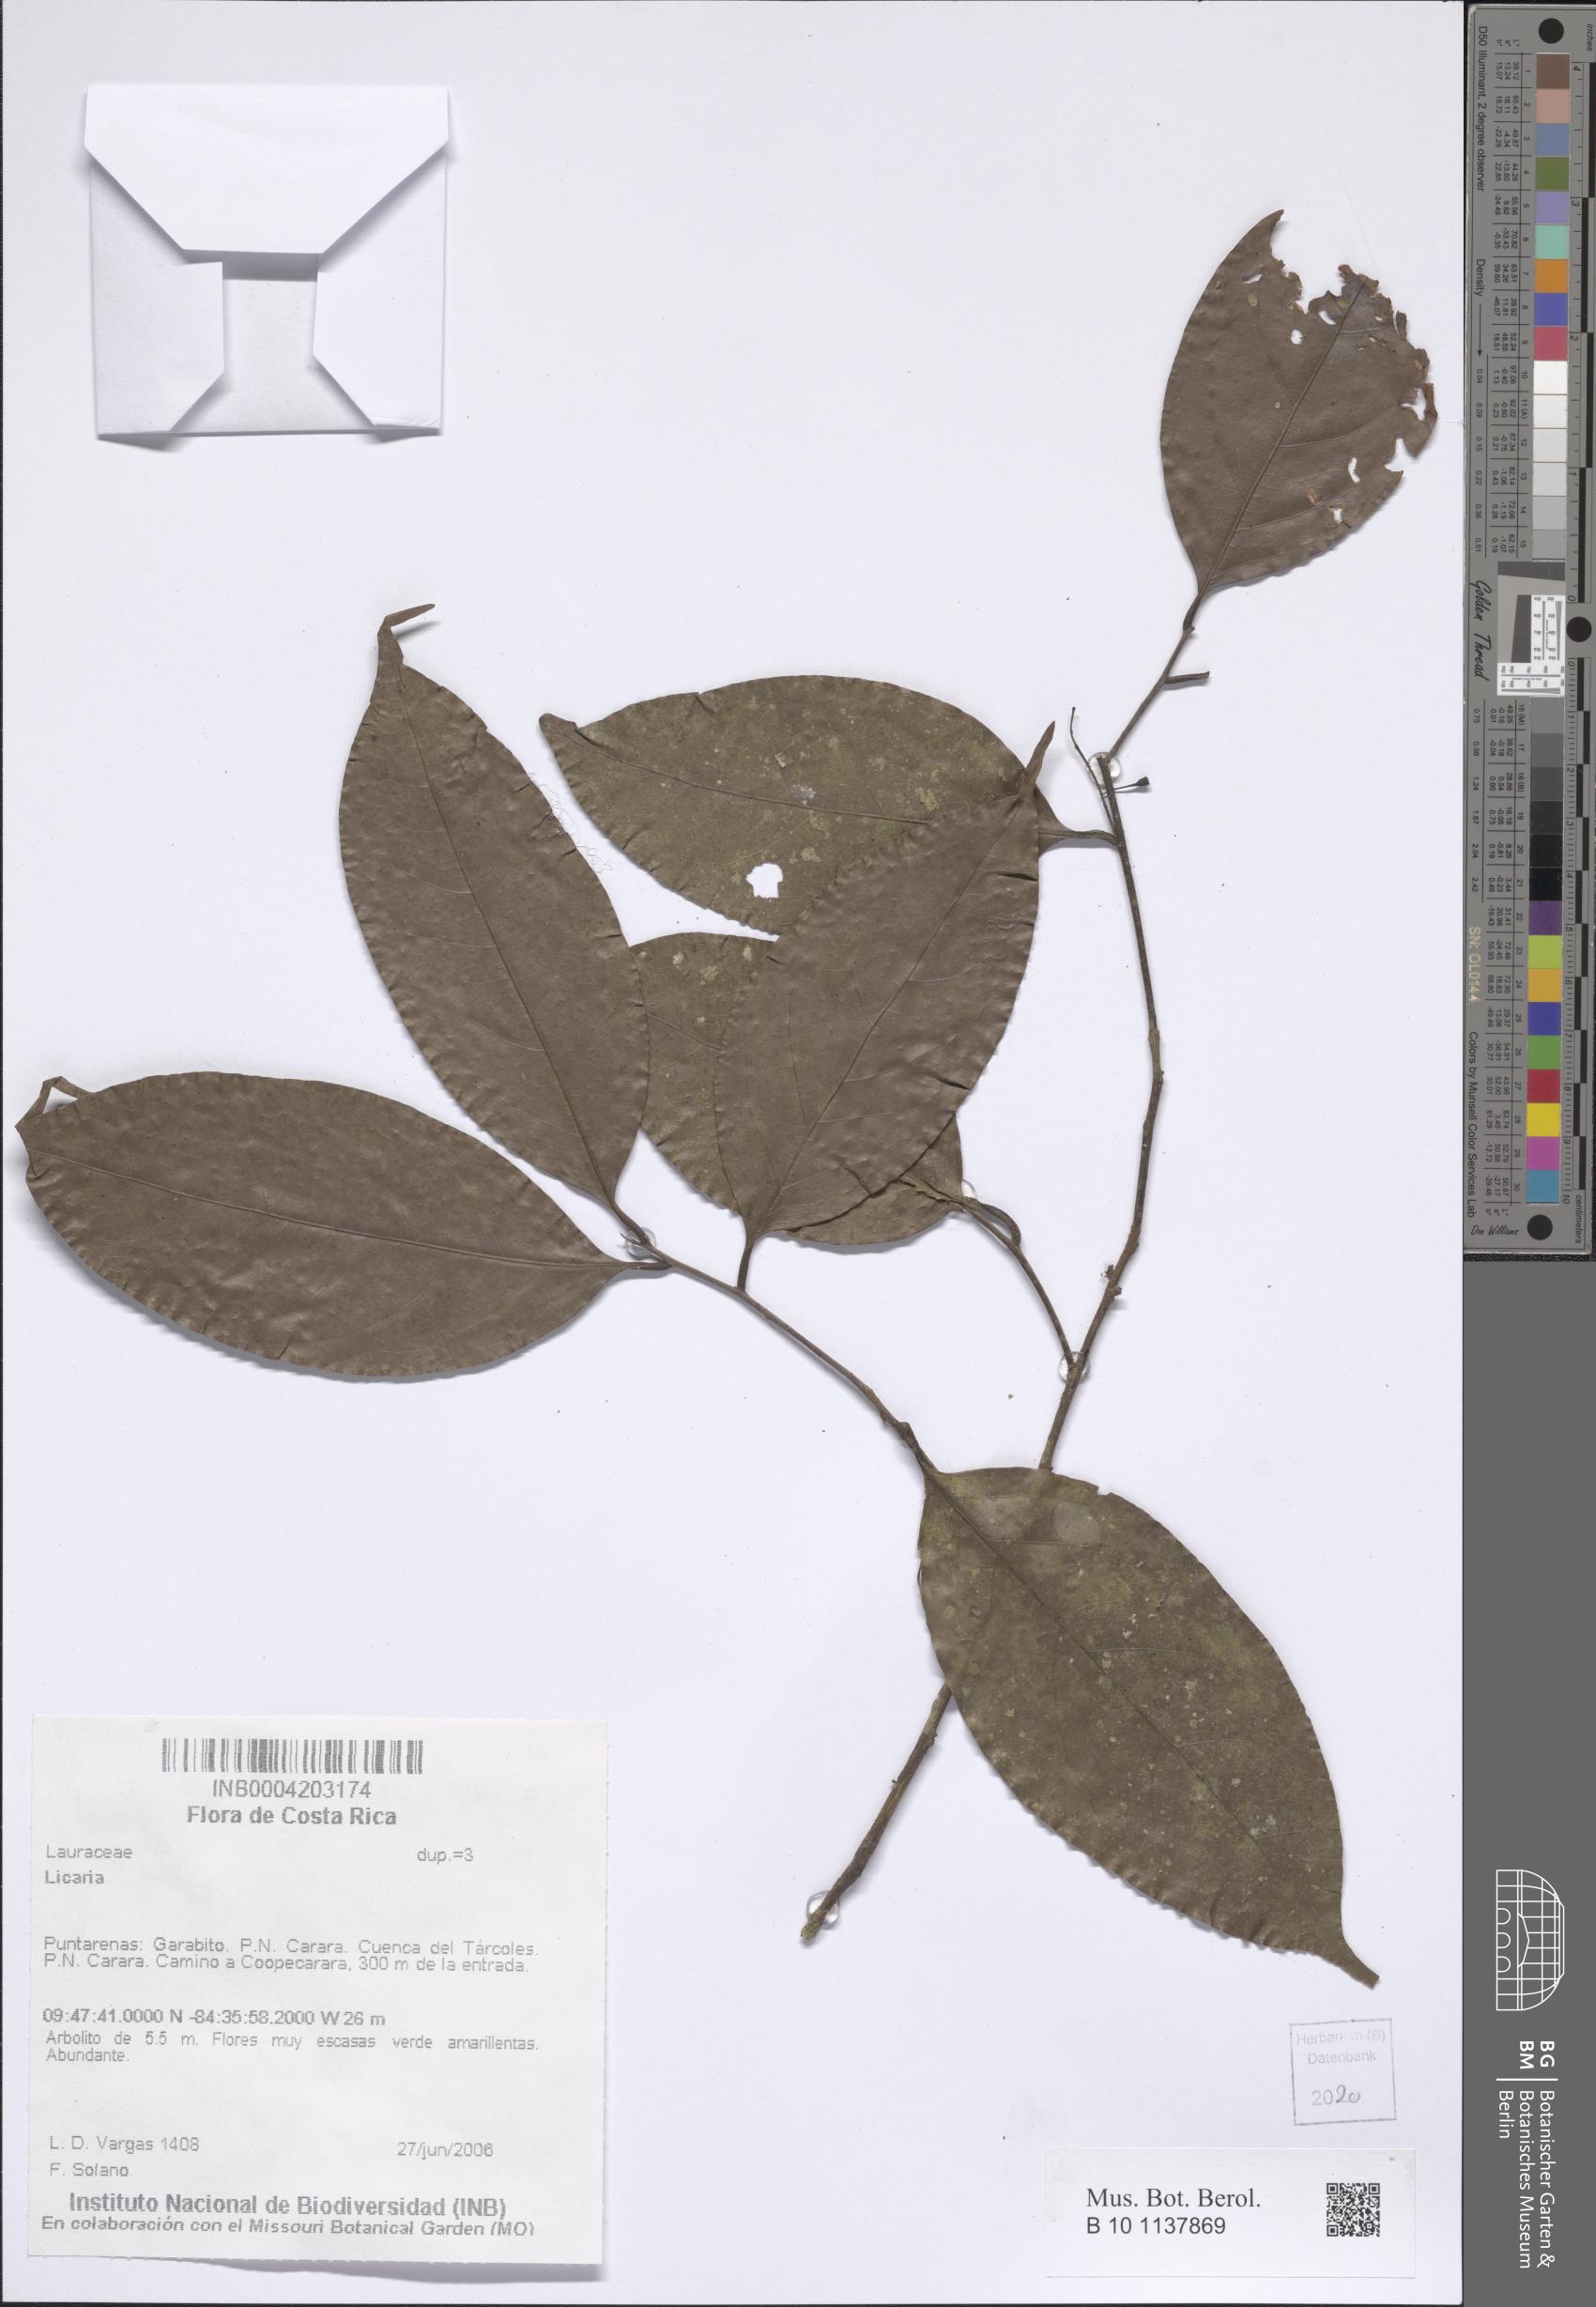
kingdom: Plantae
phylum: Tracheophyta
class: Magnoliopsida
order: Laurales
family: Lauraceae
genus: Licaria
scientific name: Licaria
